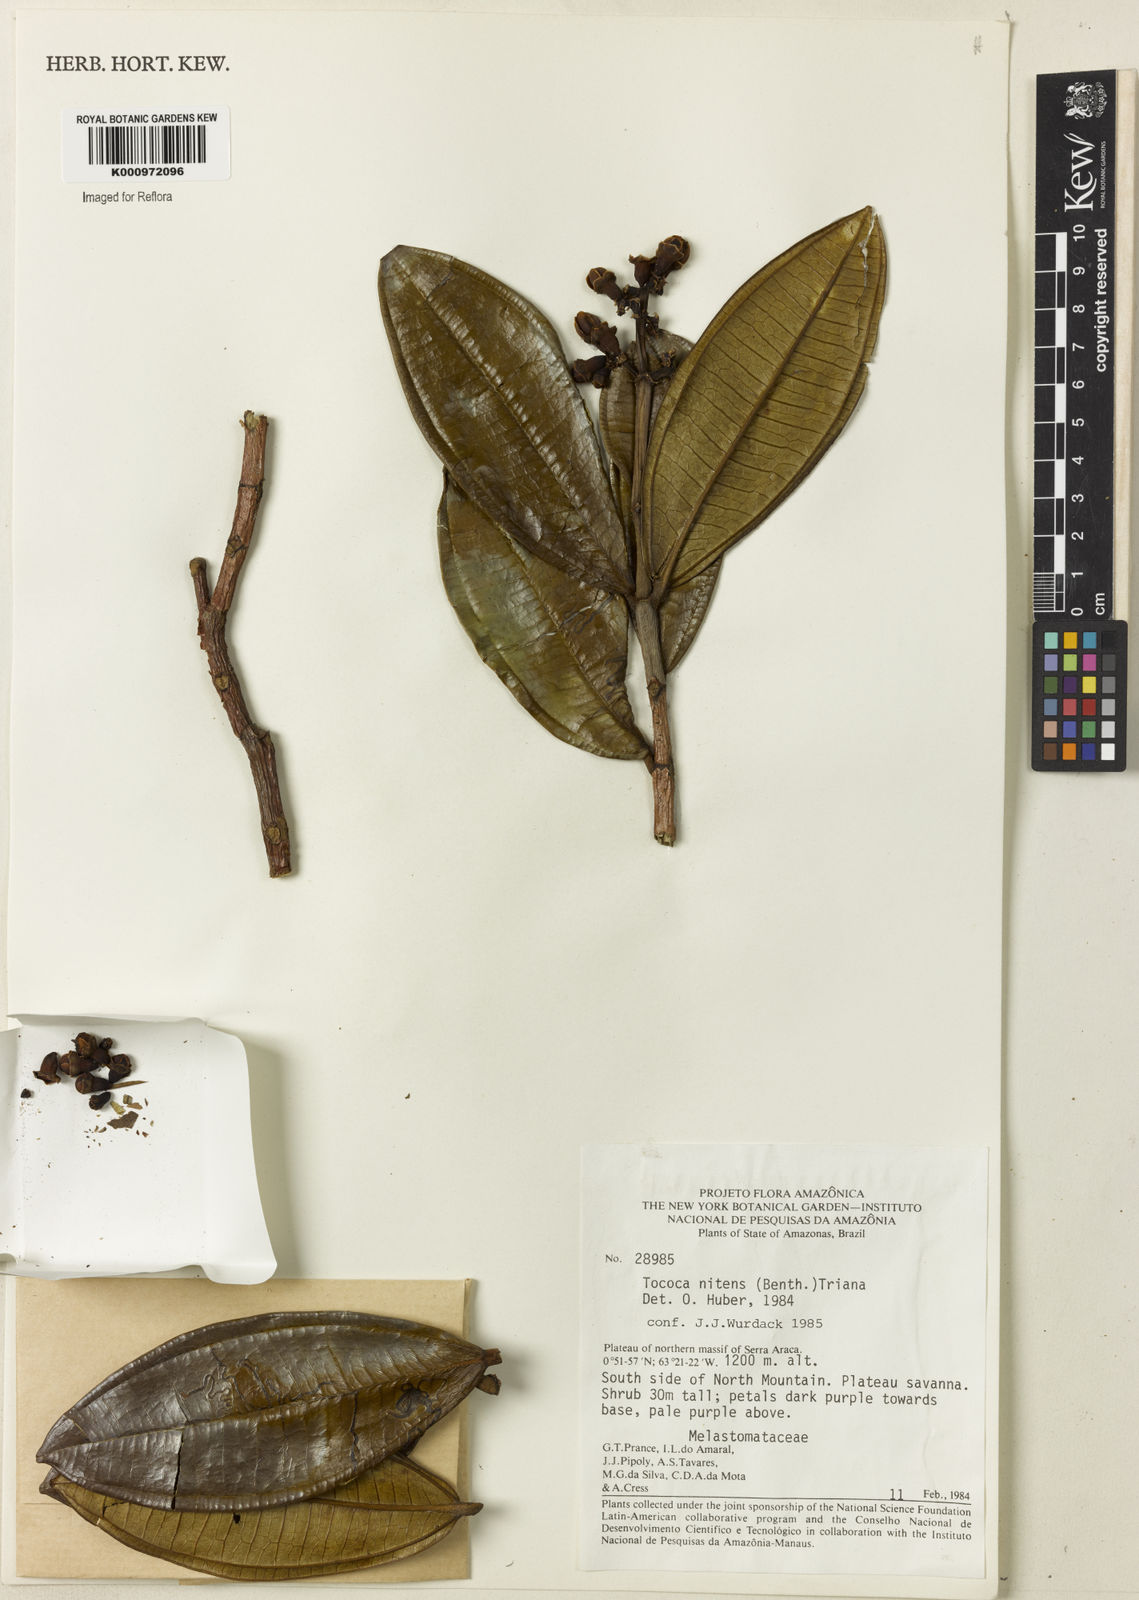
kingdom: Plantae
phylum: Tracheophyta
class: Magnoliopsida
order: Myrtales
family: Melastomataceae
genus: Miconia
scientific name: Miconia nitens
